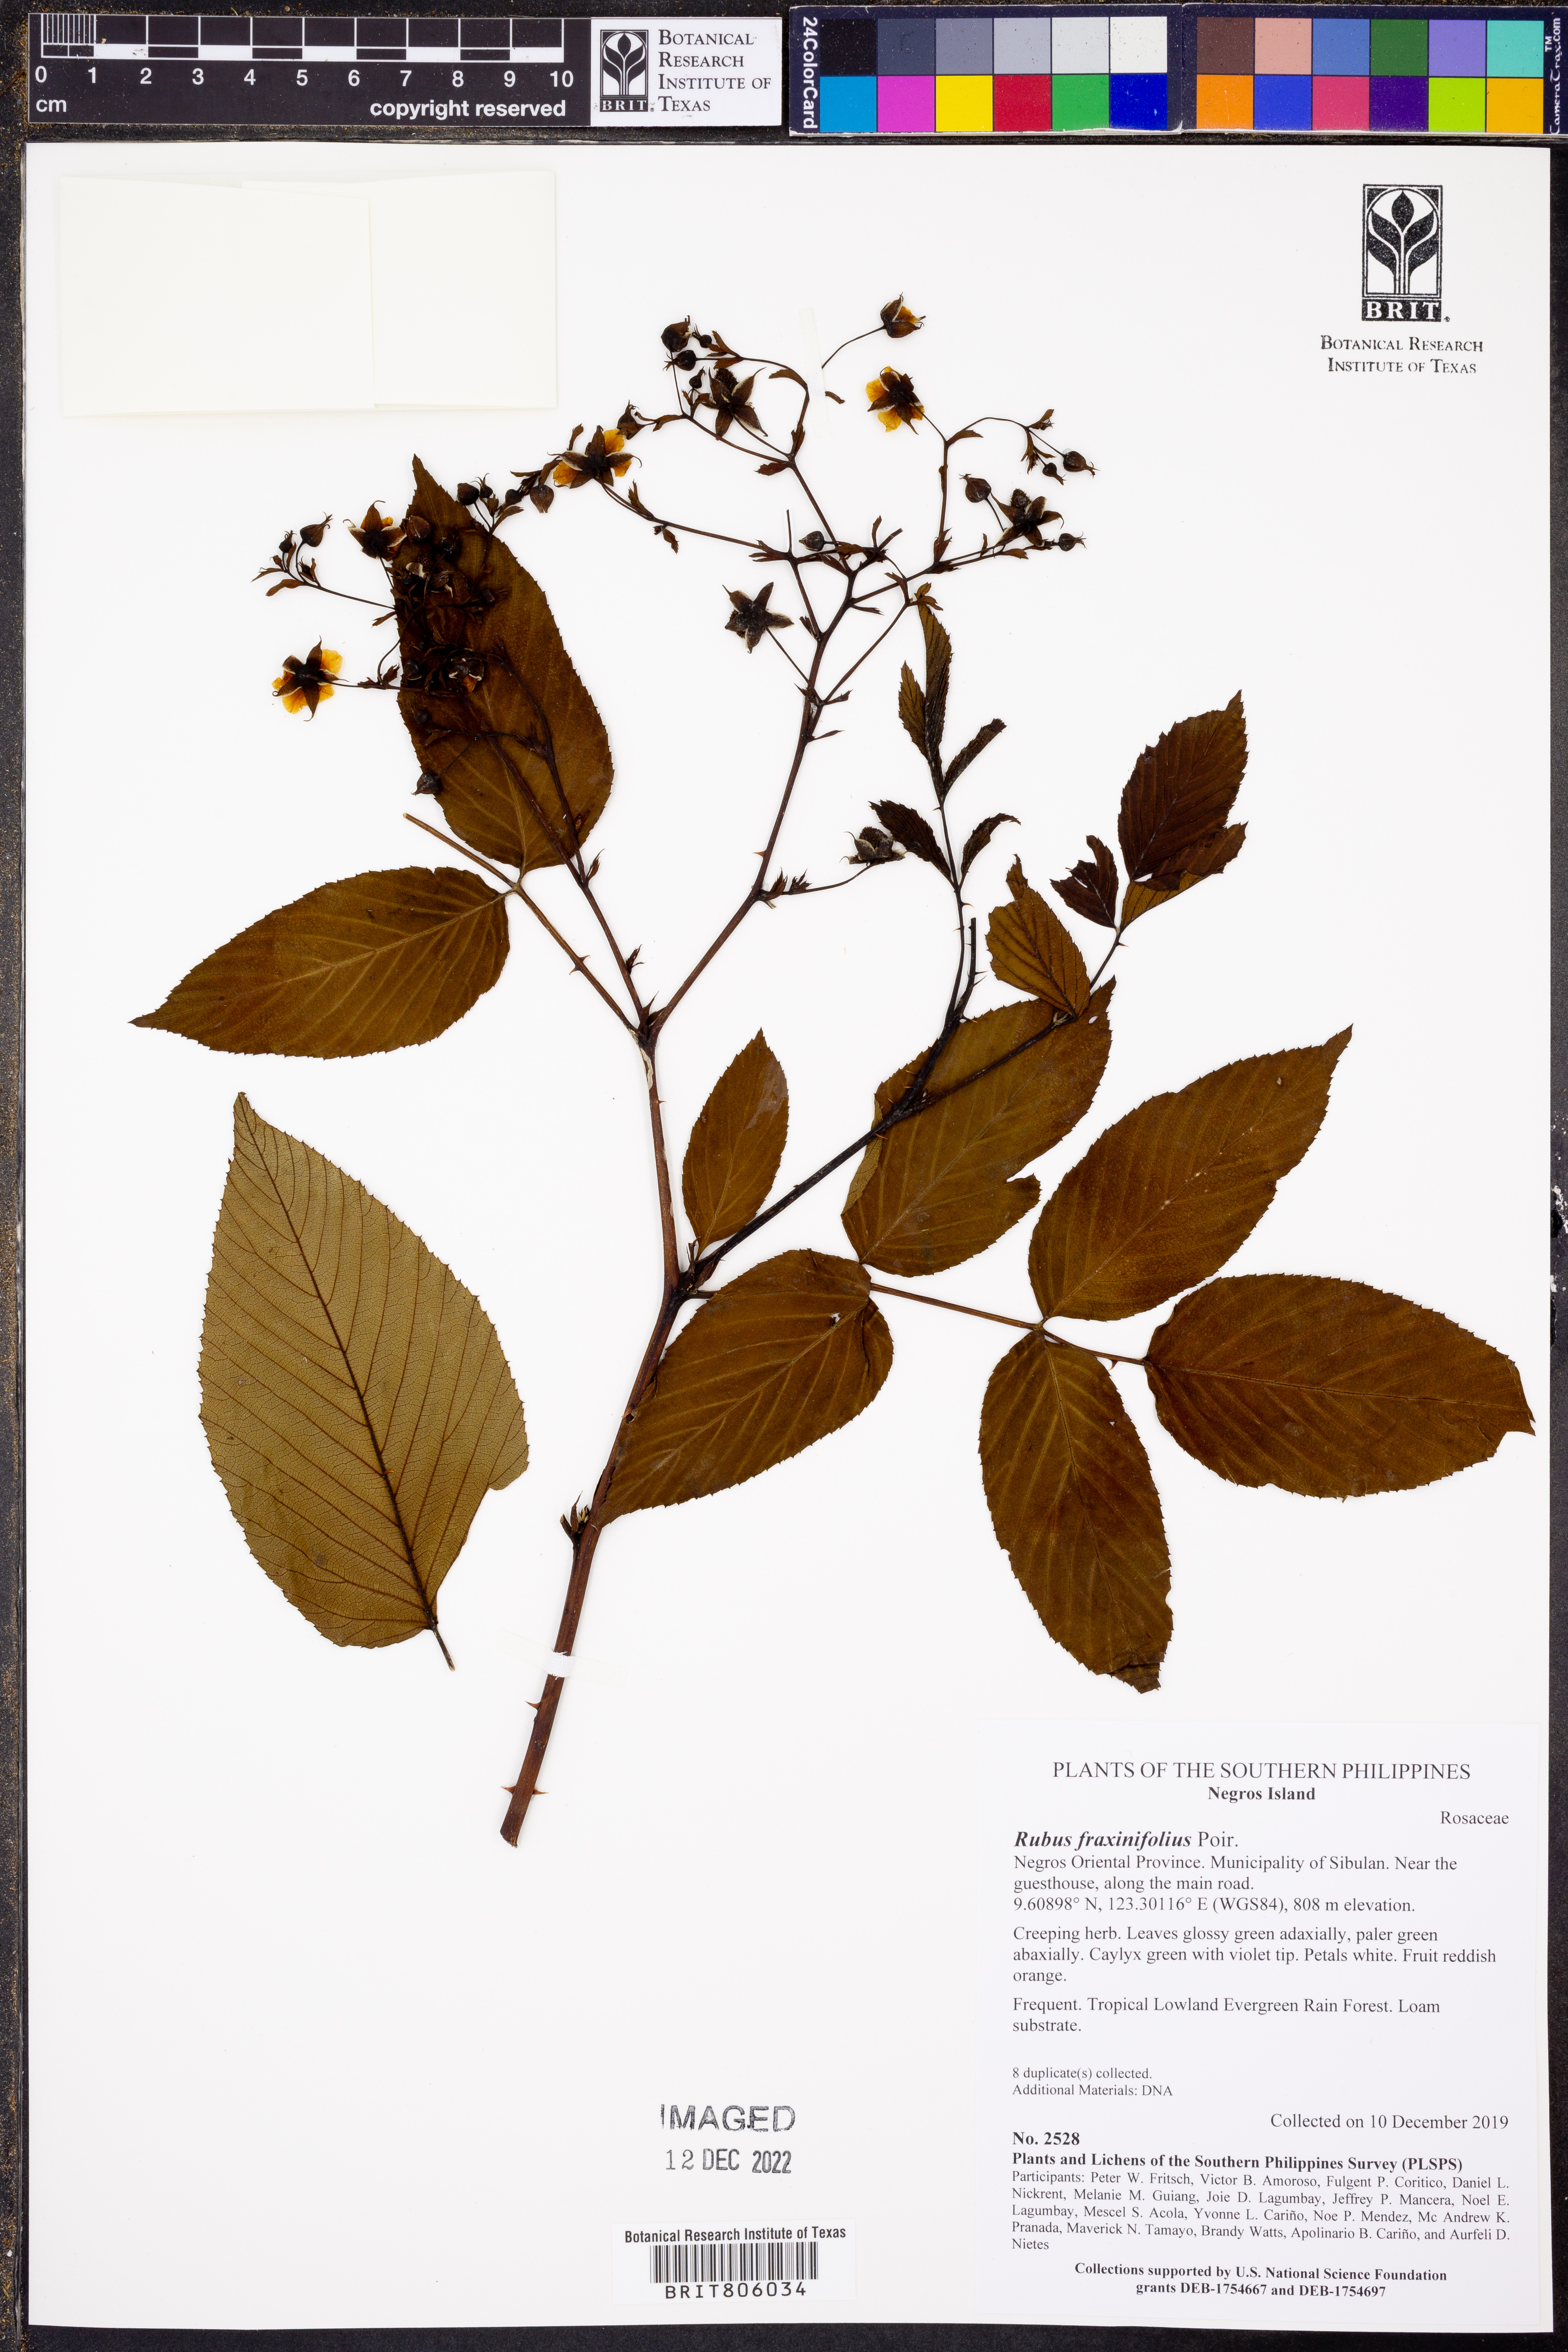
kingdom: Plantae
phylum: Tracheophyta
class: Magnoliopsida
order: Rosales
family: Rosaceae
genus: Rubus
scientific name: Rubus fraxinifolius
